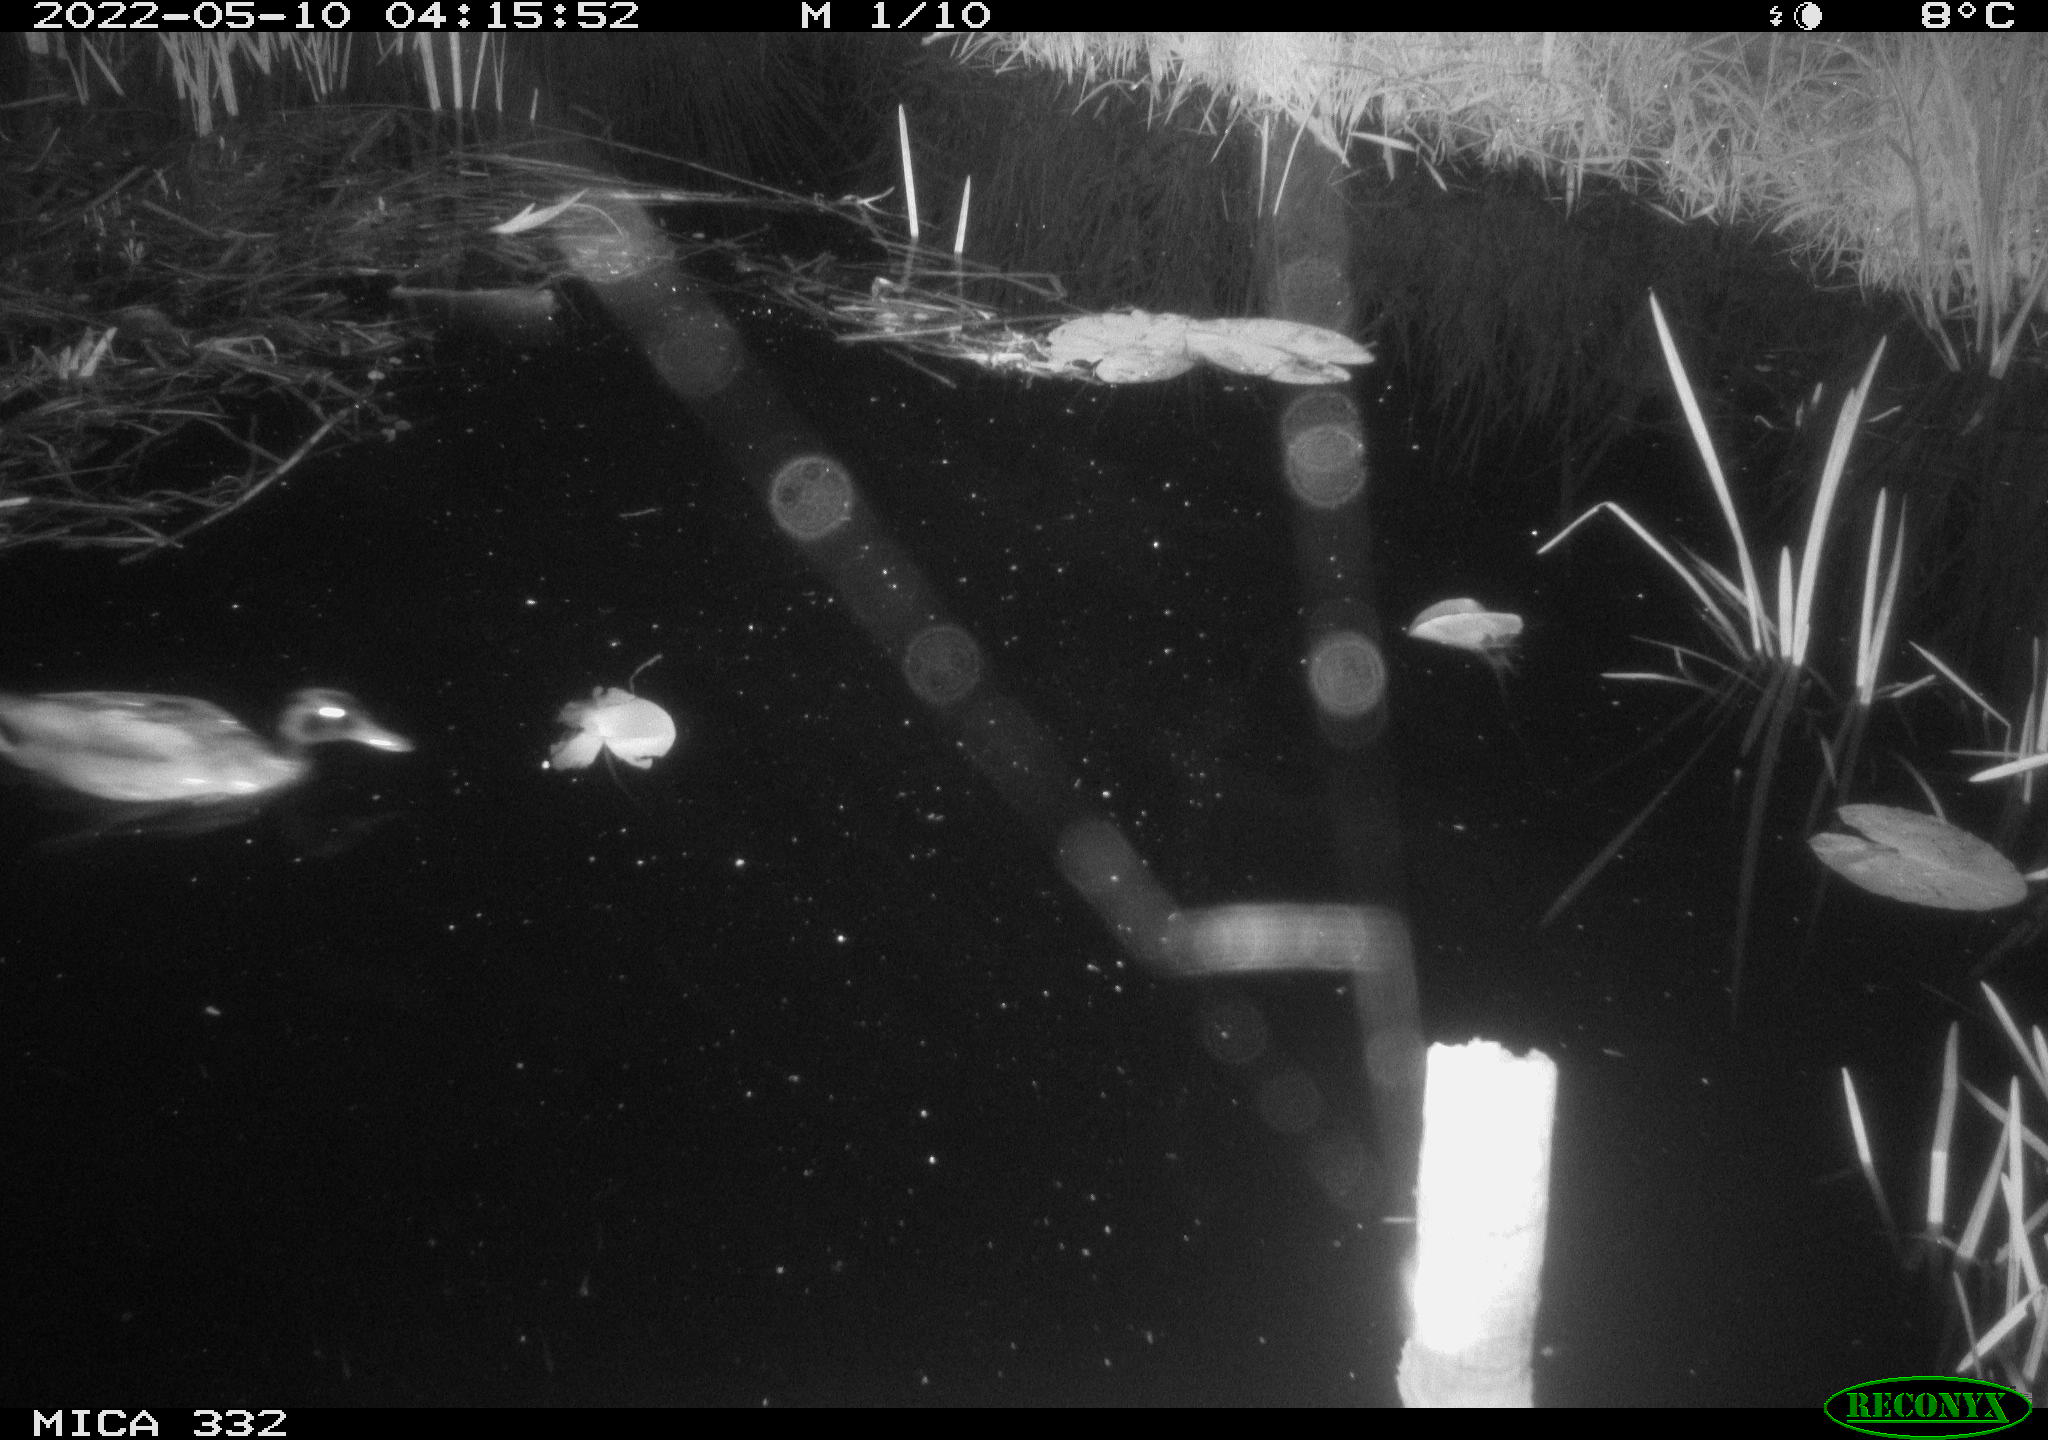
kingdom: Animalia
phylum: Chordata
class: Aves
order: Anseriformes
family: Anatidae
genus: Anas
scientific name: Anas platyrhynchos
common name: Mallard
